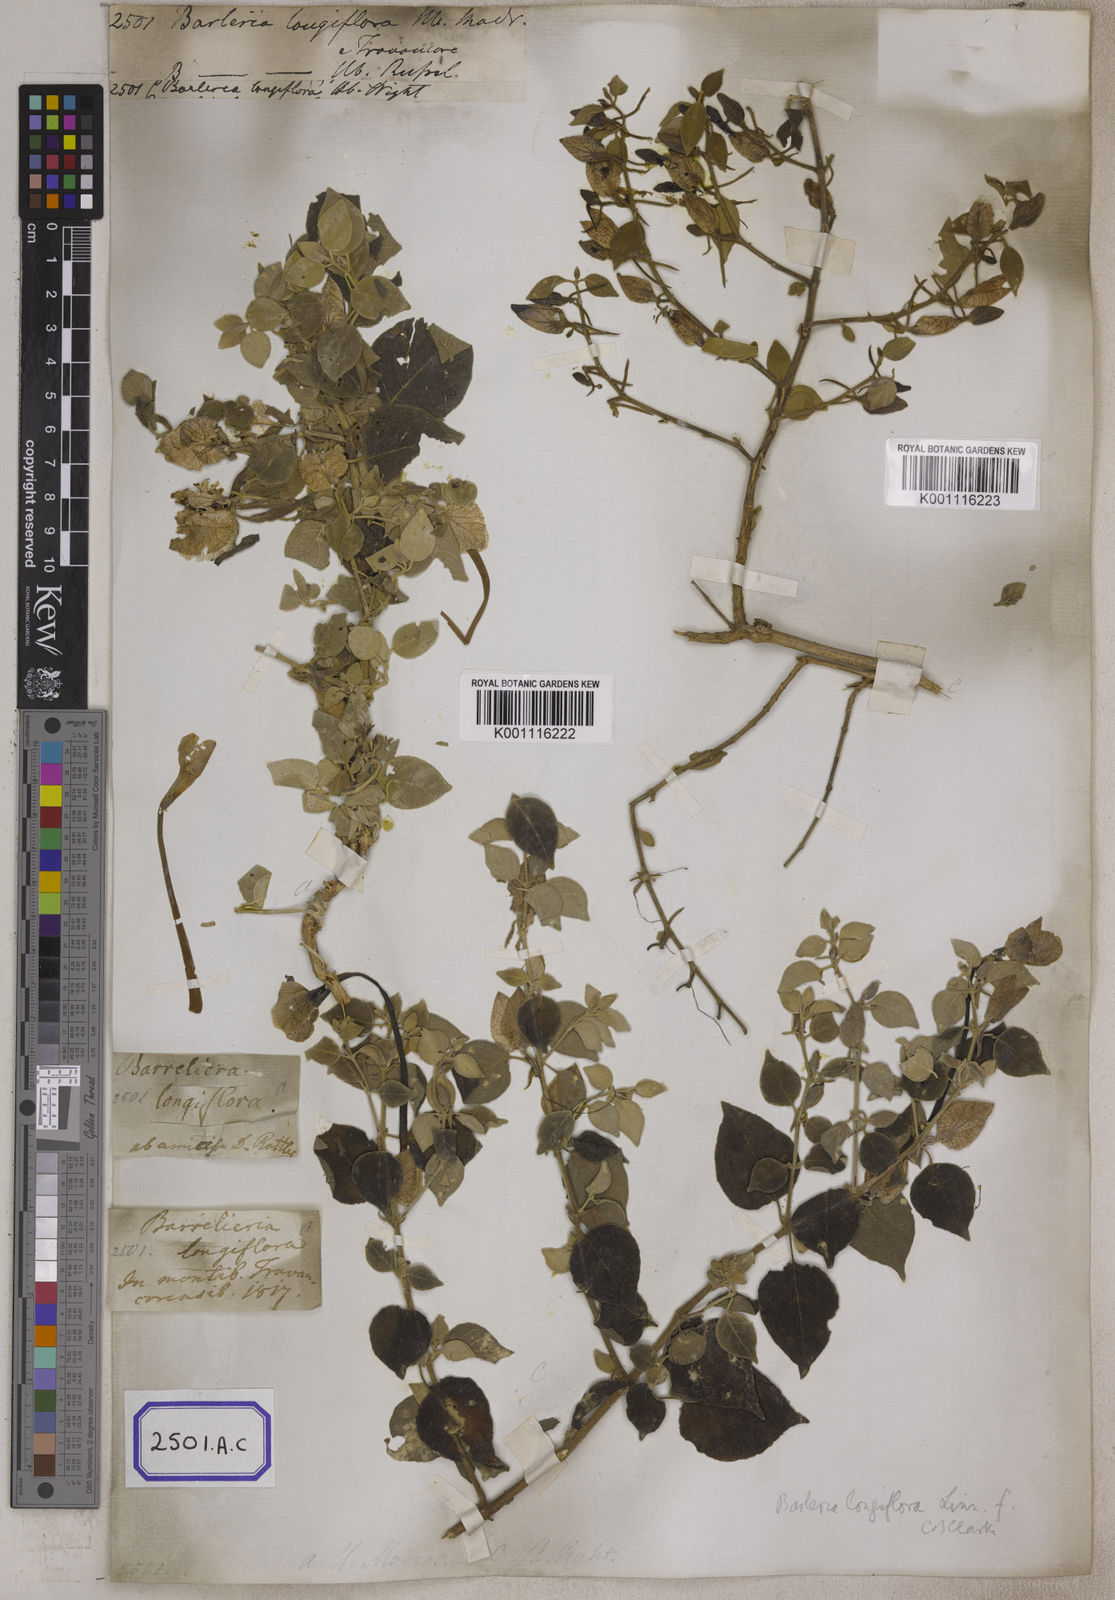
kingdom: Plantae
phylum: Tracheophyta
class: Magnoliopsida
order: Lamiales
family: Acanthaceae
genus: Barleria
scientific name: Barleria longiflora
